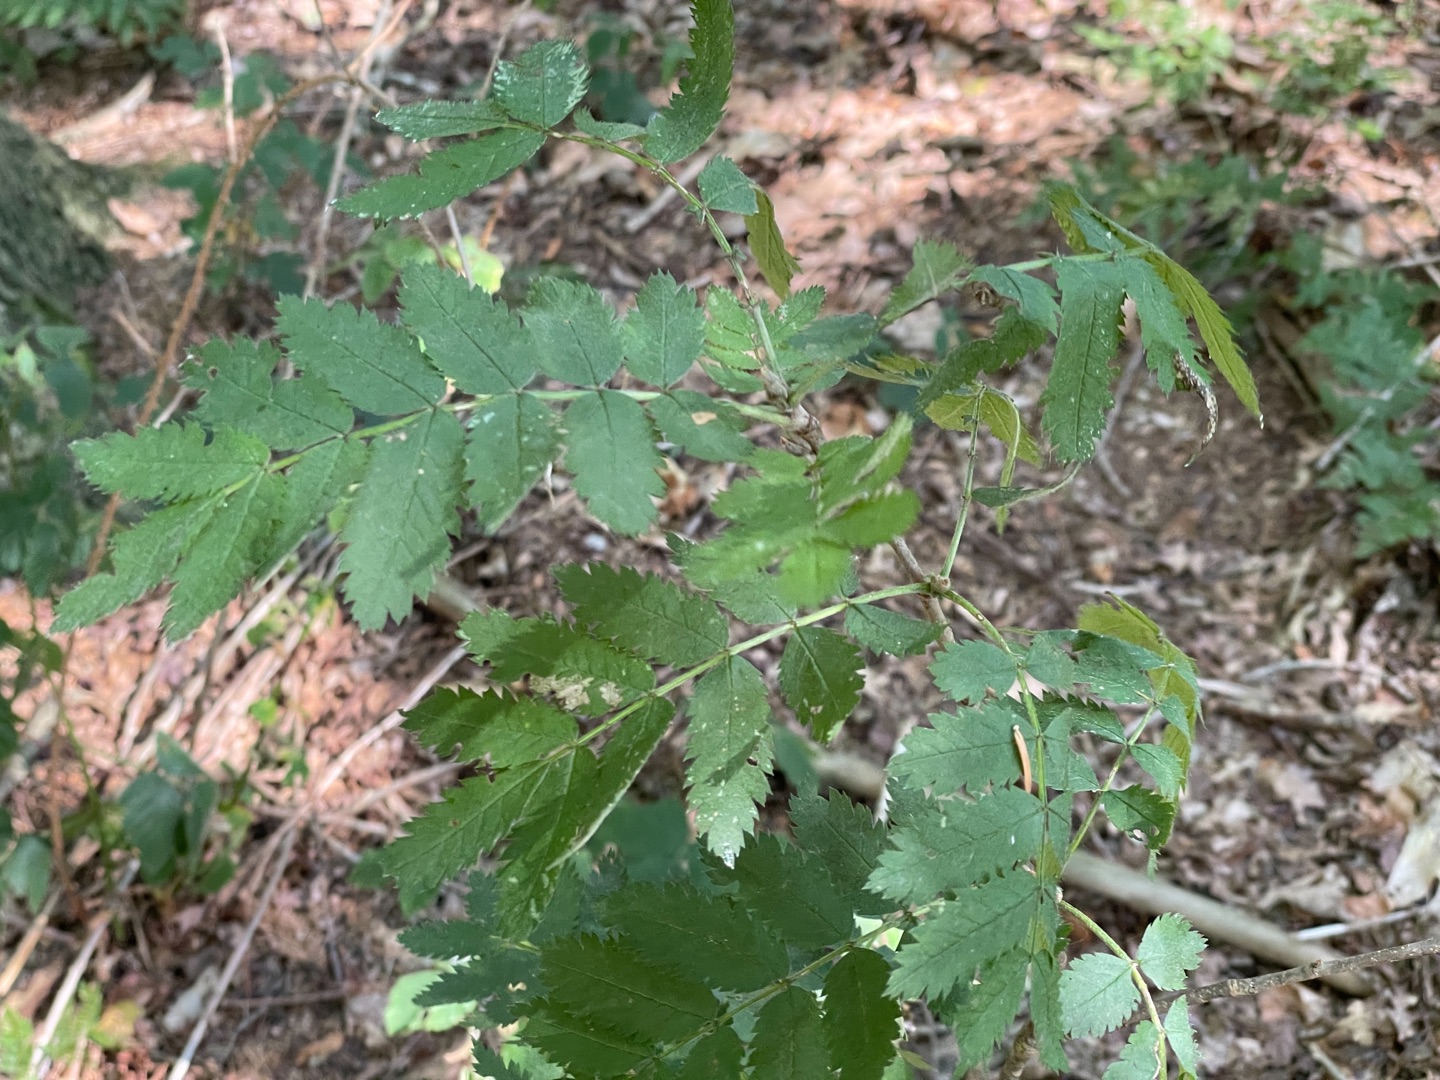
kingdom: Plantae
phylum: Tracheophyta
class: Magnoliopsida
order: Rosales
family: Rosaceae
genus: Sorbus
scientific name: Sorbus aucuparia
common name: Almindelig røn
